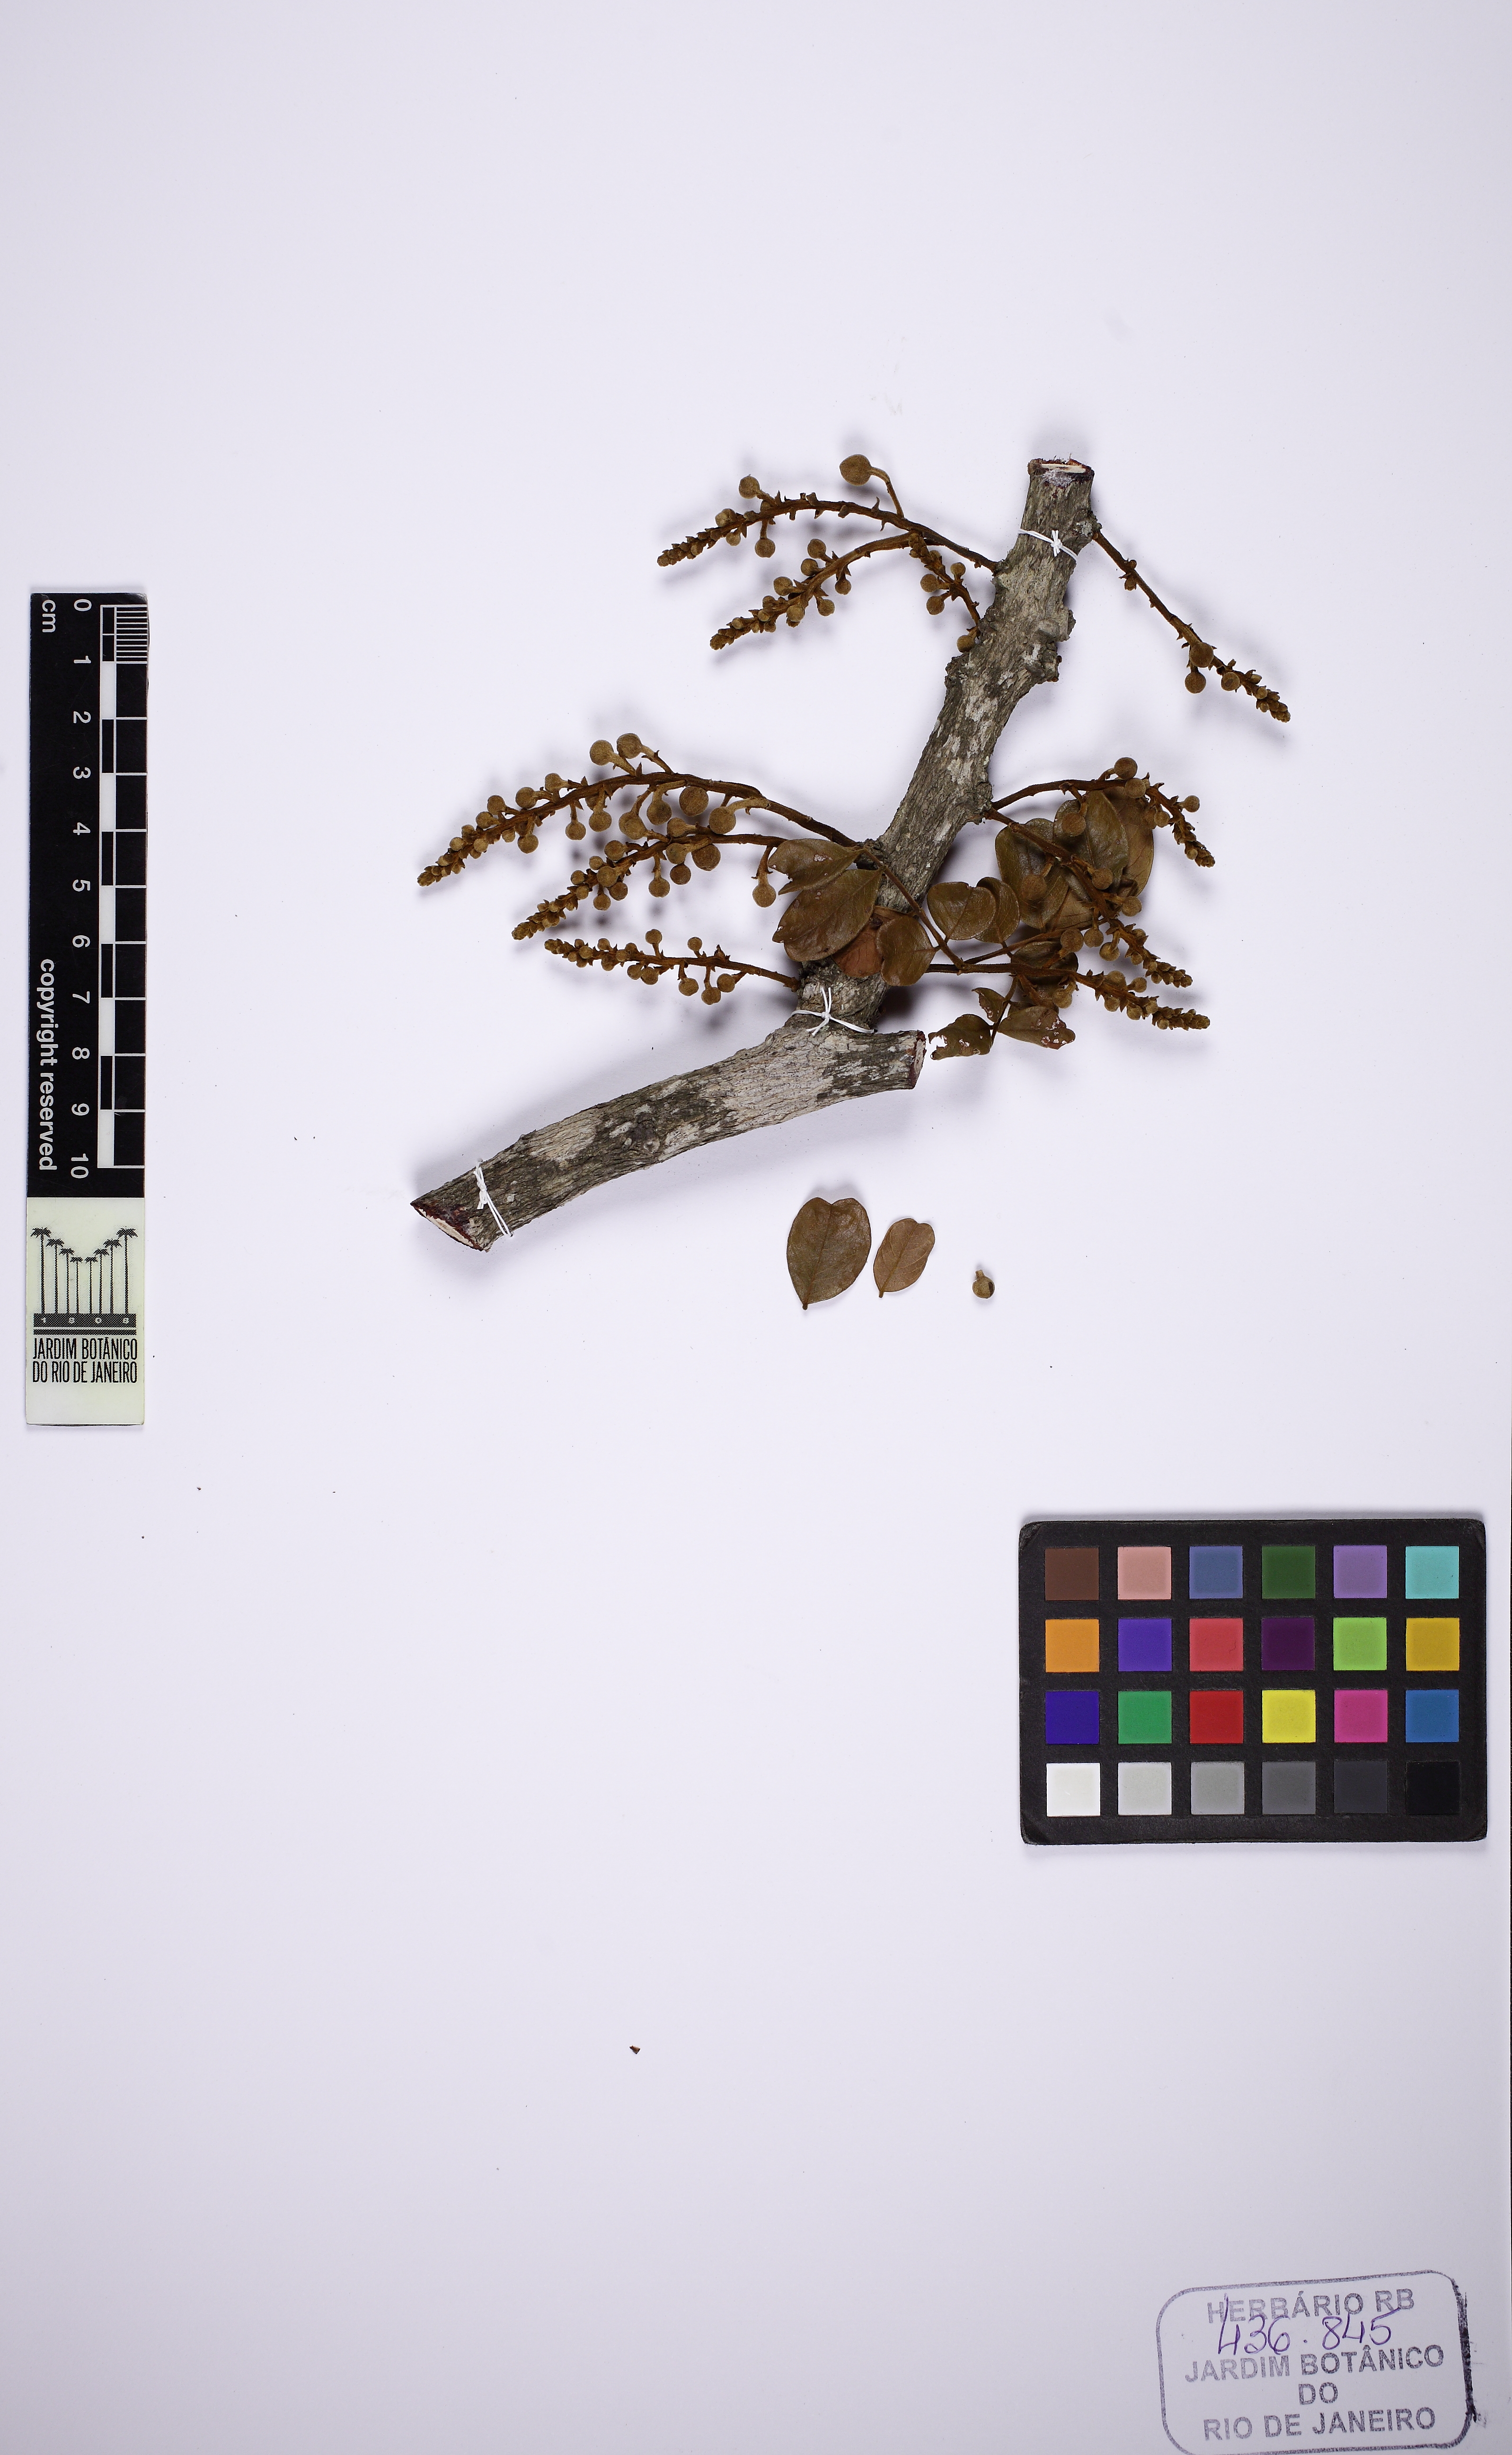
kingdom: Plantae
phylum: Tracheophyta
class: Magnoliopsida
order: Fabales
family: Fabaceae
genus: Swartzia
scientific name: Swartzia flaemingii
